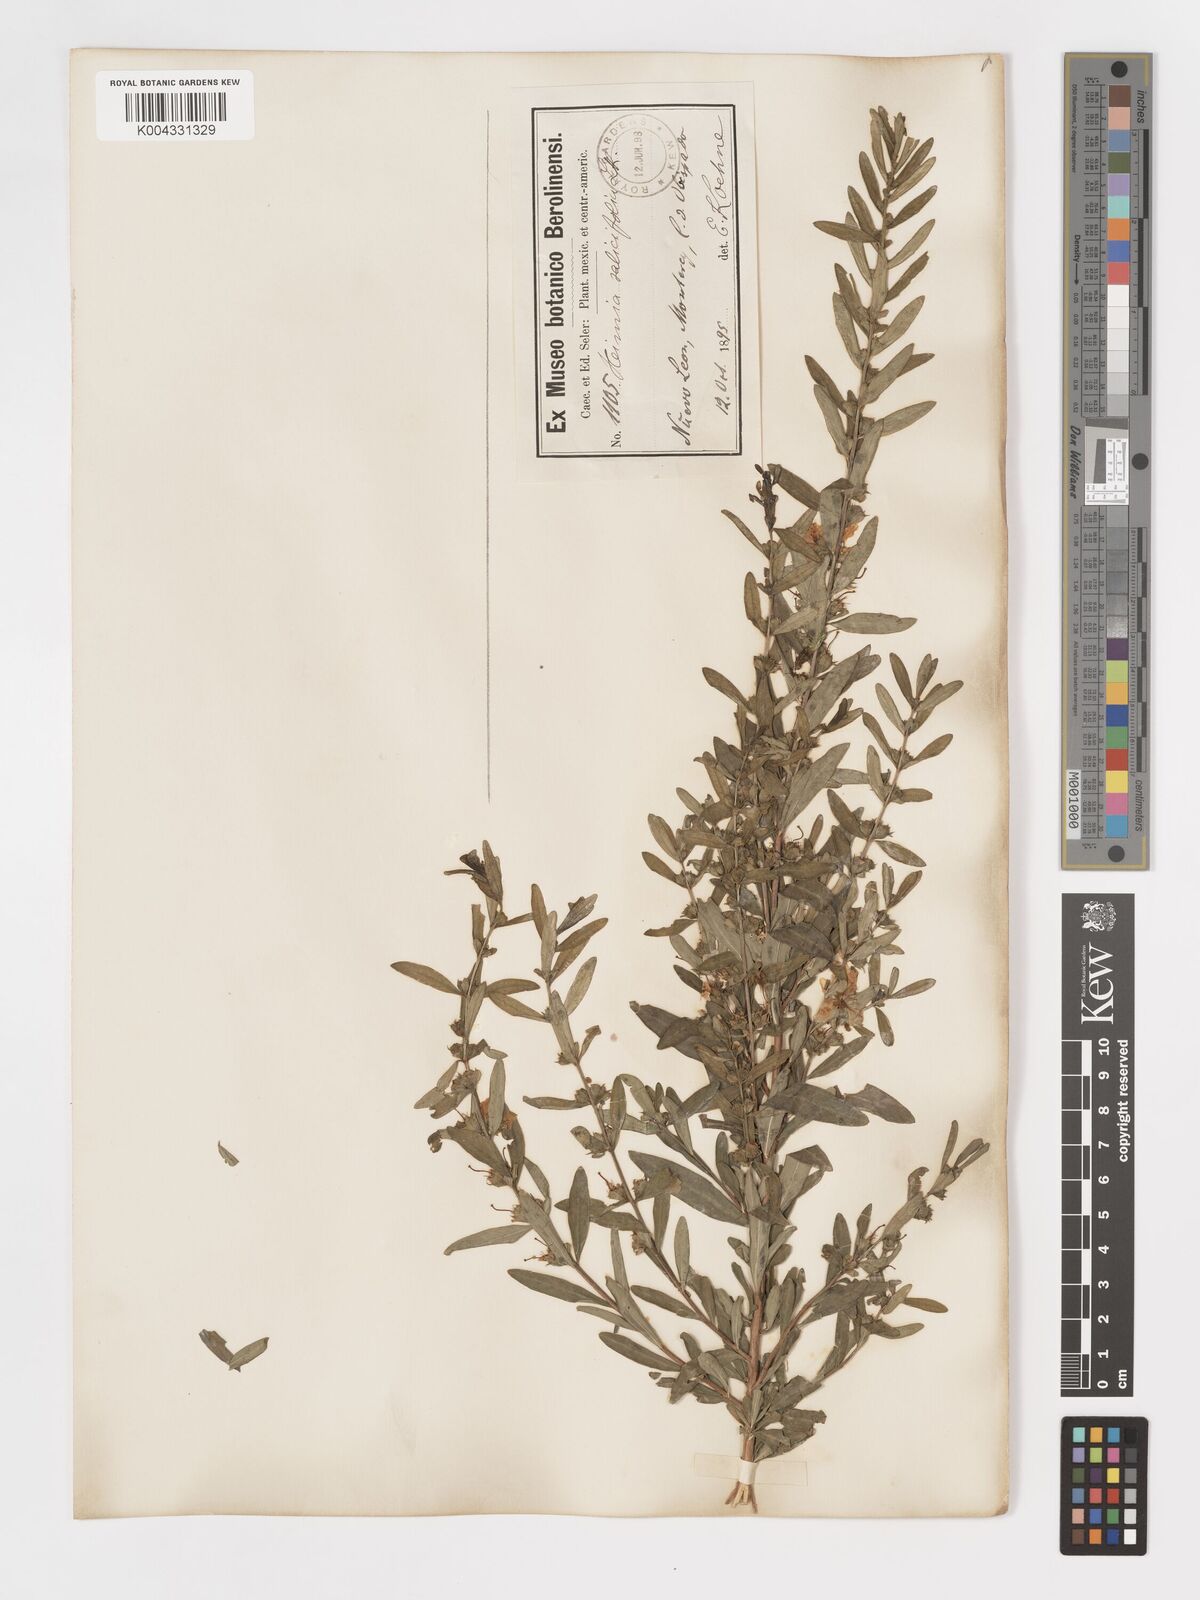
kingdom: Plantae
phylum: Tracheophyta
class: Magnoliopsida
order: Myrtales
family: Lythraceae
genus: Heimia
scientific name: Heimia salicifolia
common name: Willow-leaf heimia
